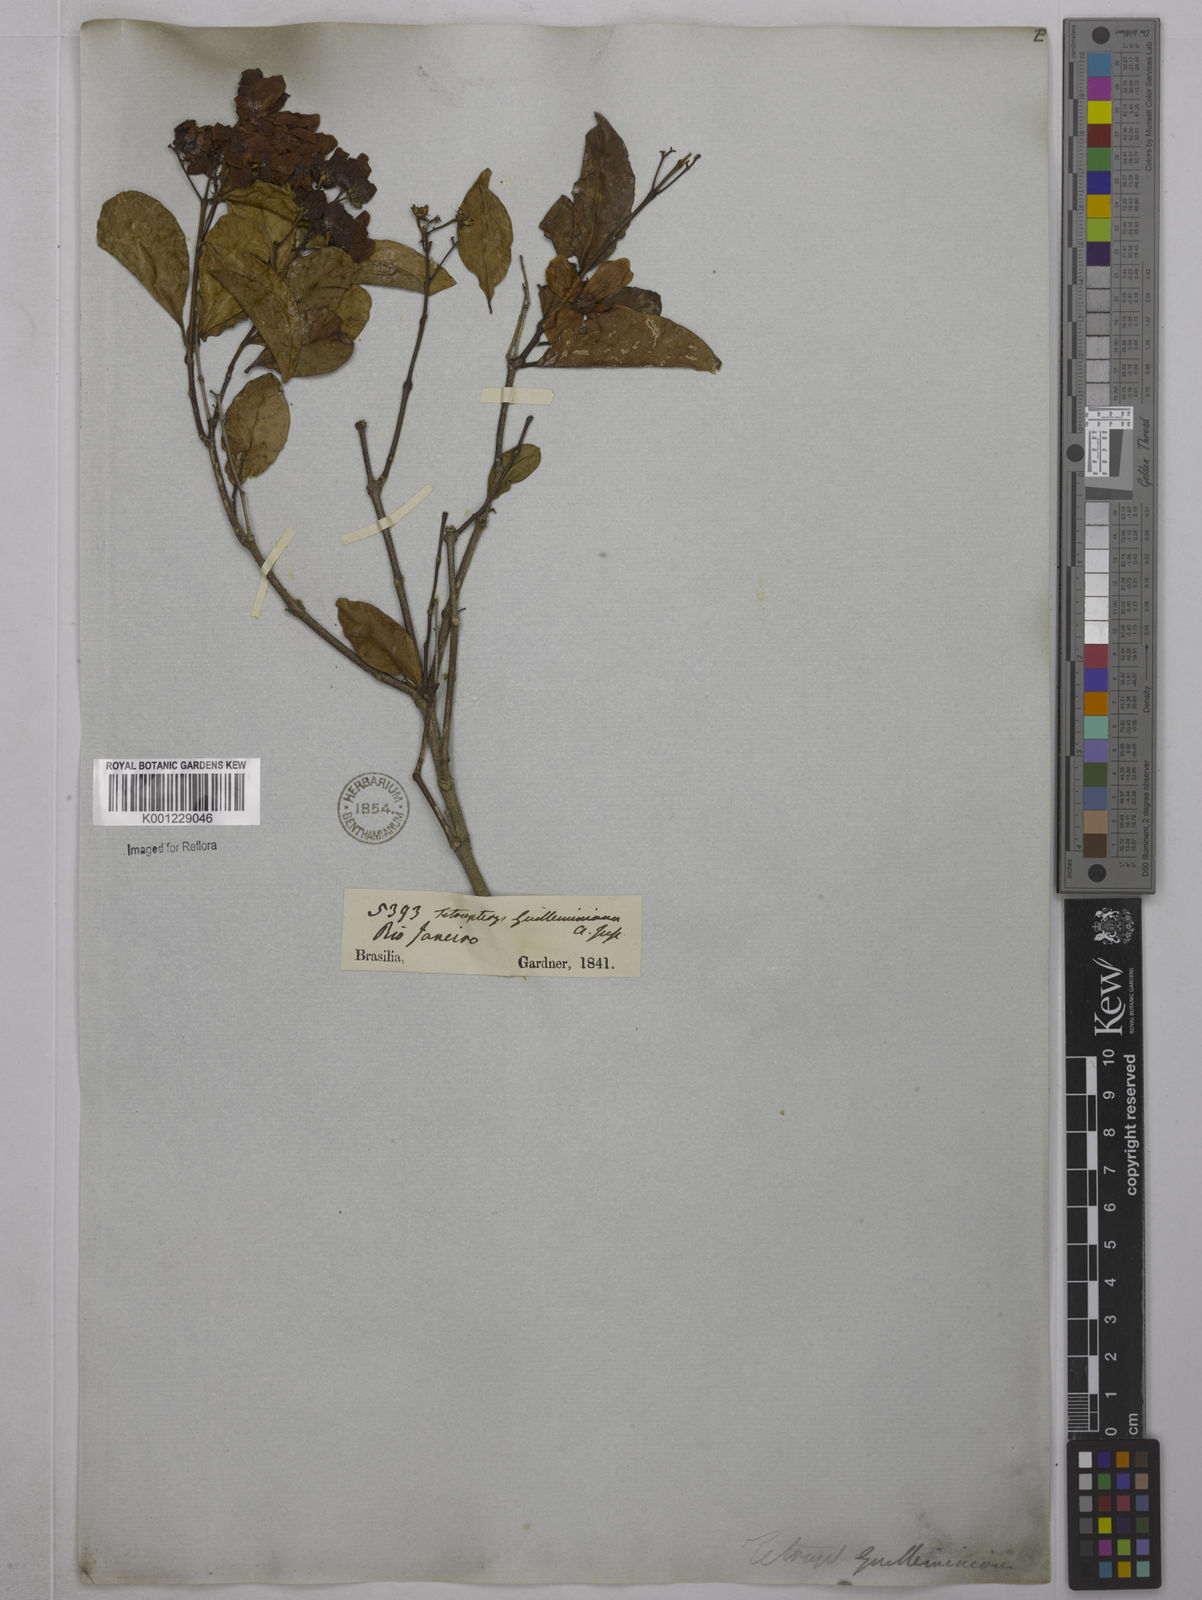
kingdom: Plantae
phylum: Tracheophyta
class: Magnoliopsida
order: Malpighiales
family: Malpighiaceae
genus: Niedenzuella
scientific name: Niedenzuella acutifolia
